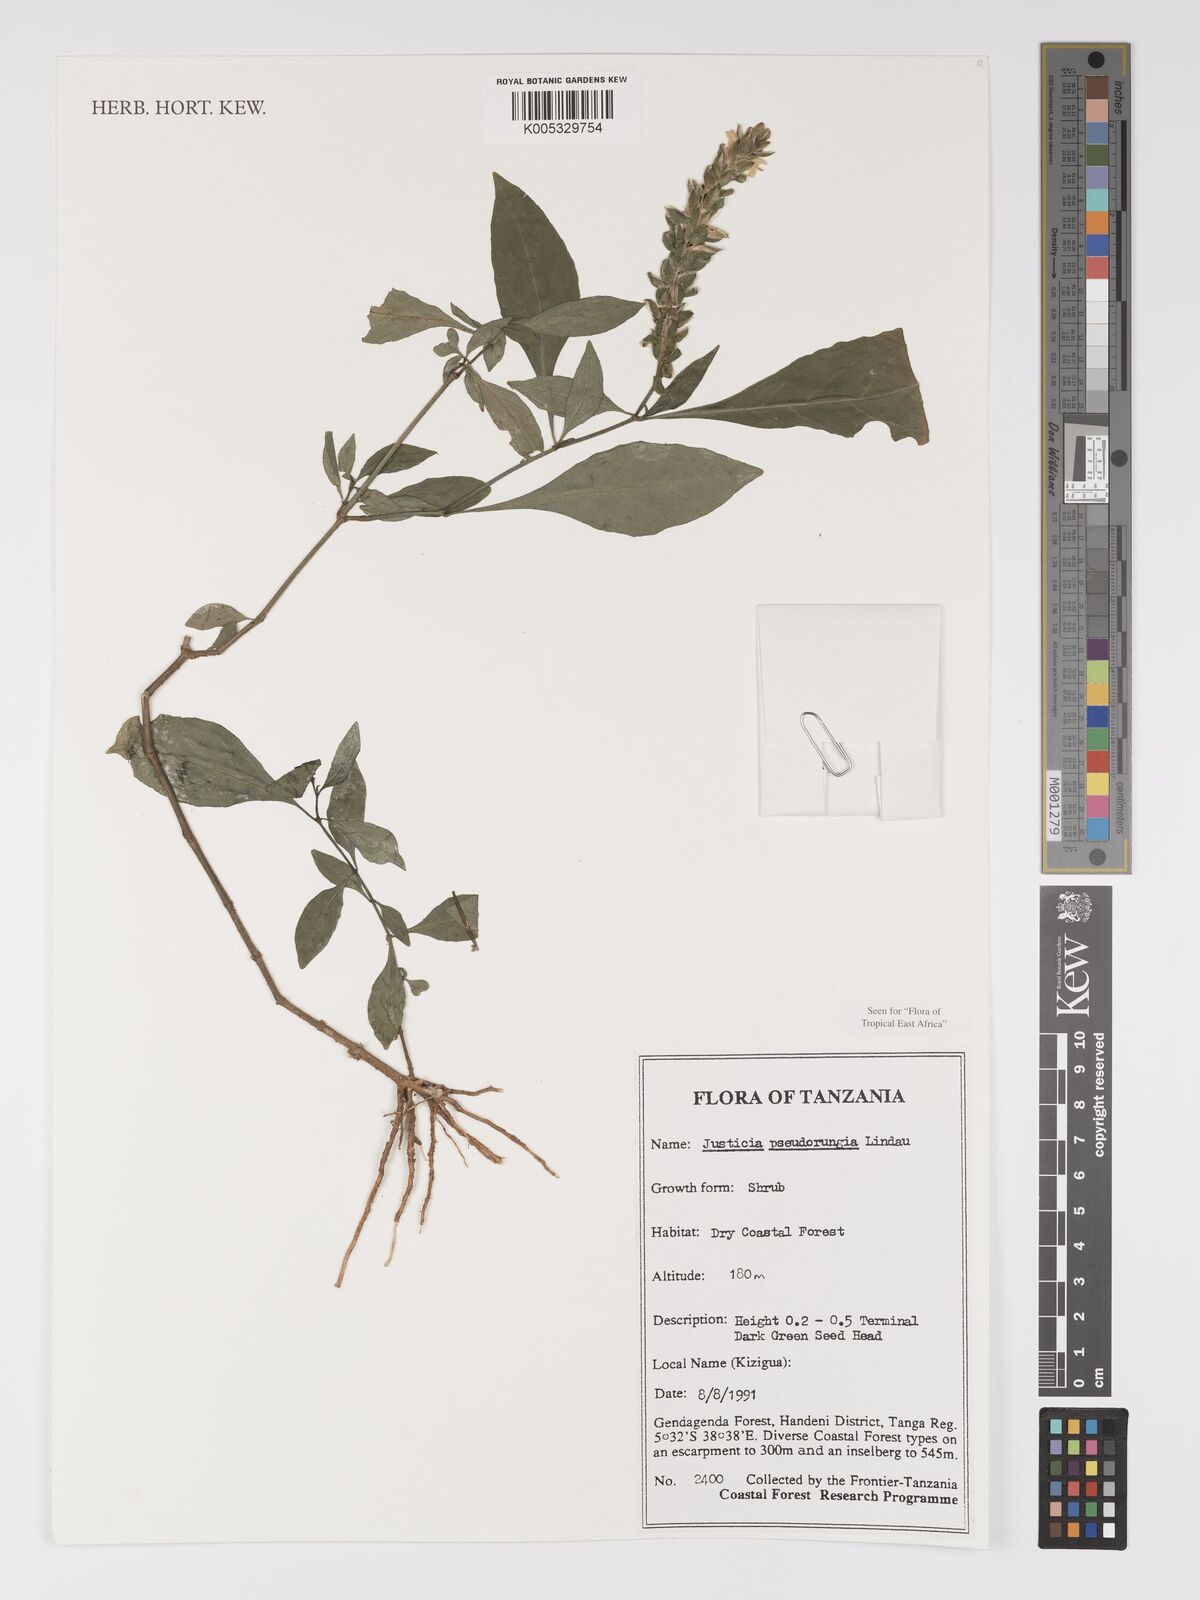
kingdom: Plantae
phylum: Tracheophyta
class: Magnoliopsida
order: Lamiales
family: Acanthaceae
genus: Justicia
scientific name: Justicia pseudorungia
